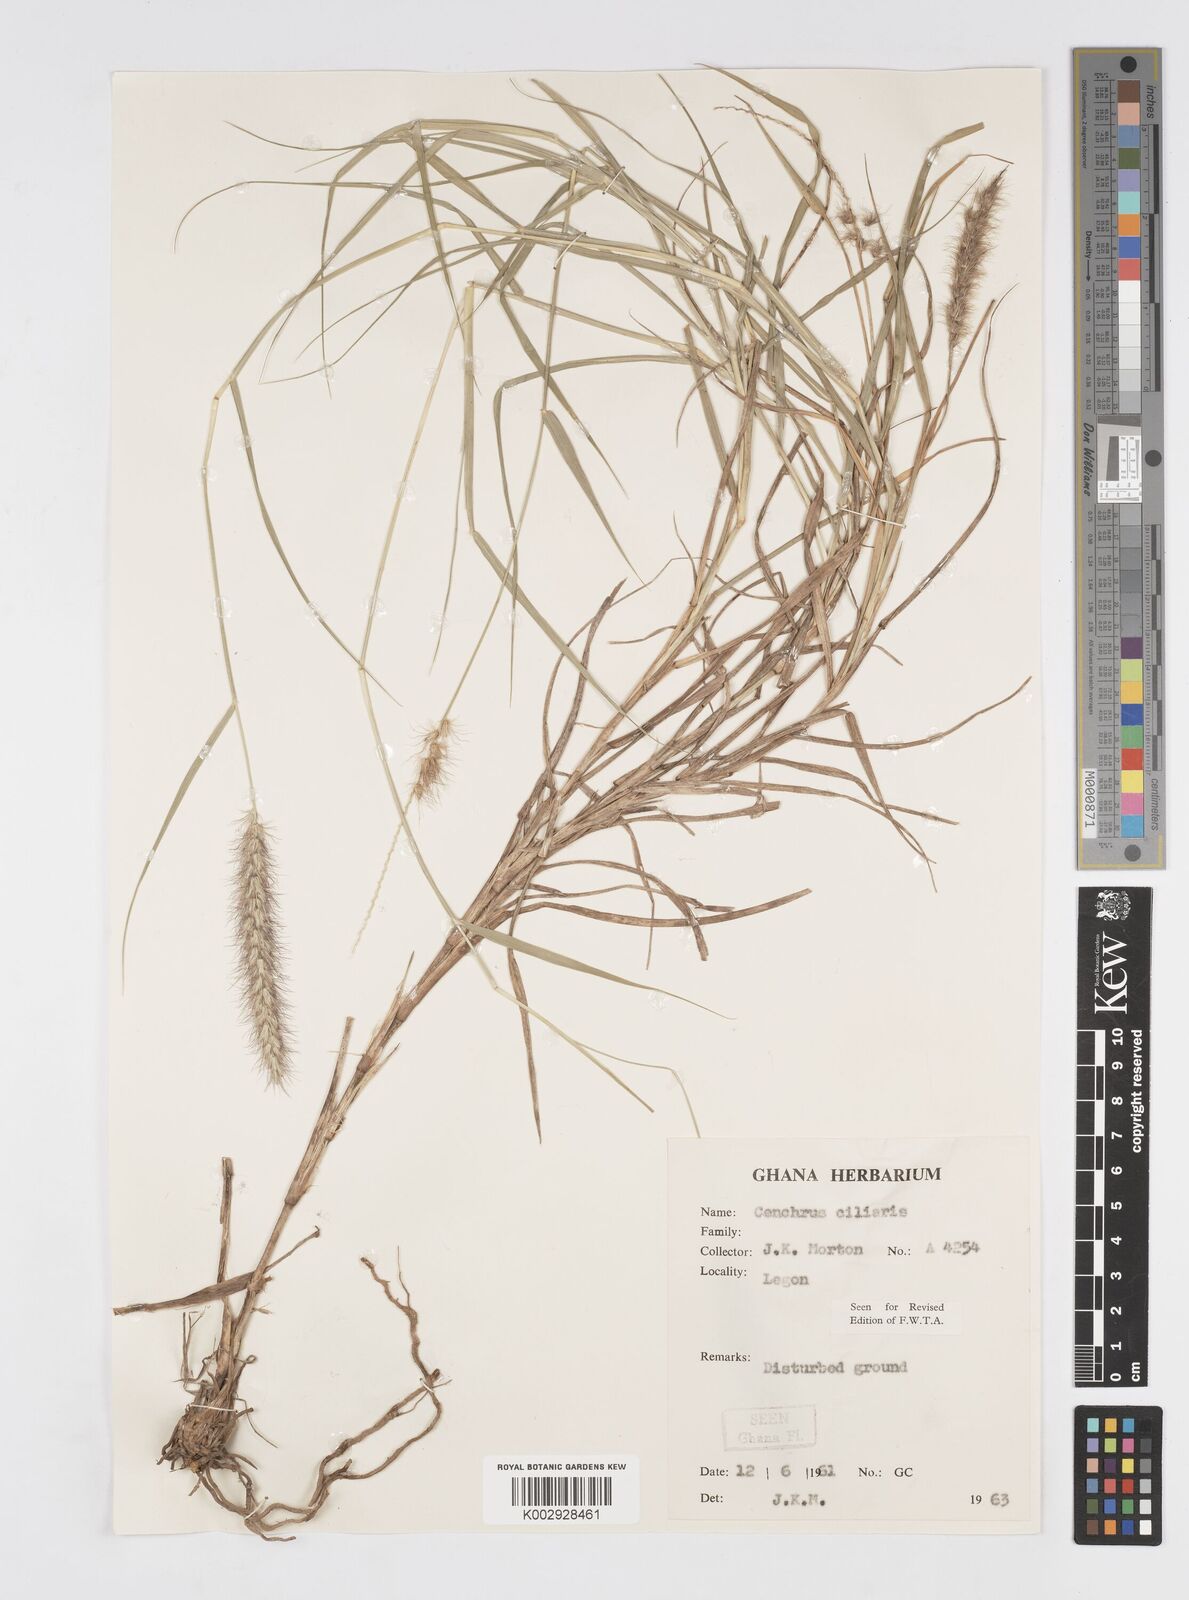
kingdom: Plantae
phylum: Tracheophyta
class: Liliopsida
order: Poales
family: Poaceae
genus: Cenchrus
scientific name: Cenchrus ciliaris
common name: Buffelgrass
